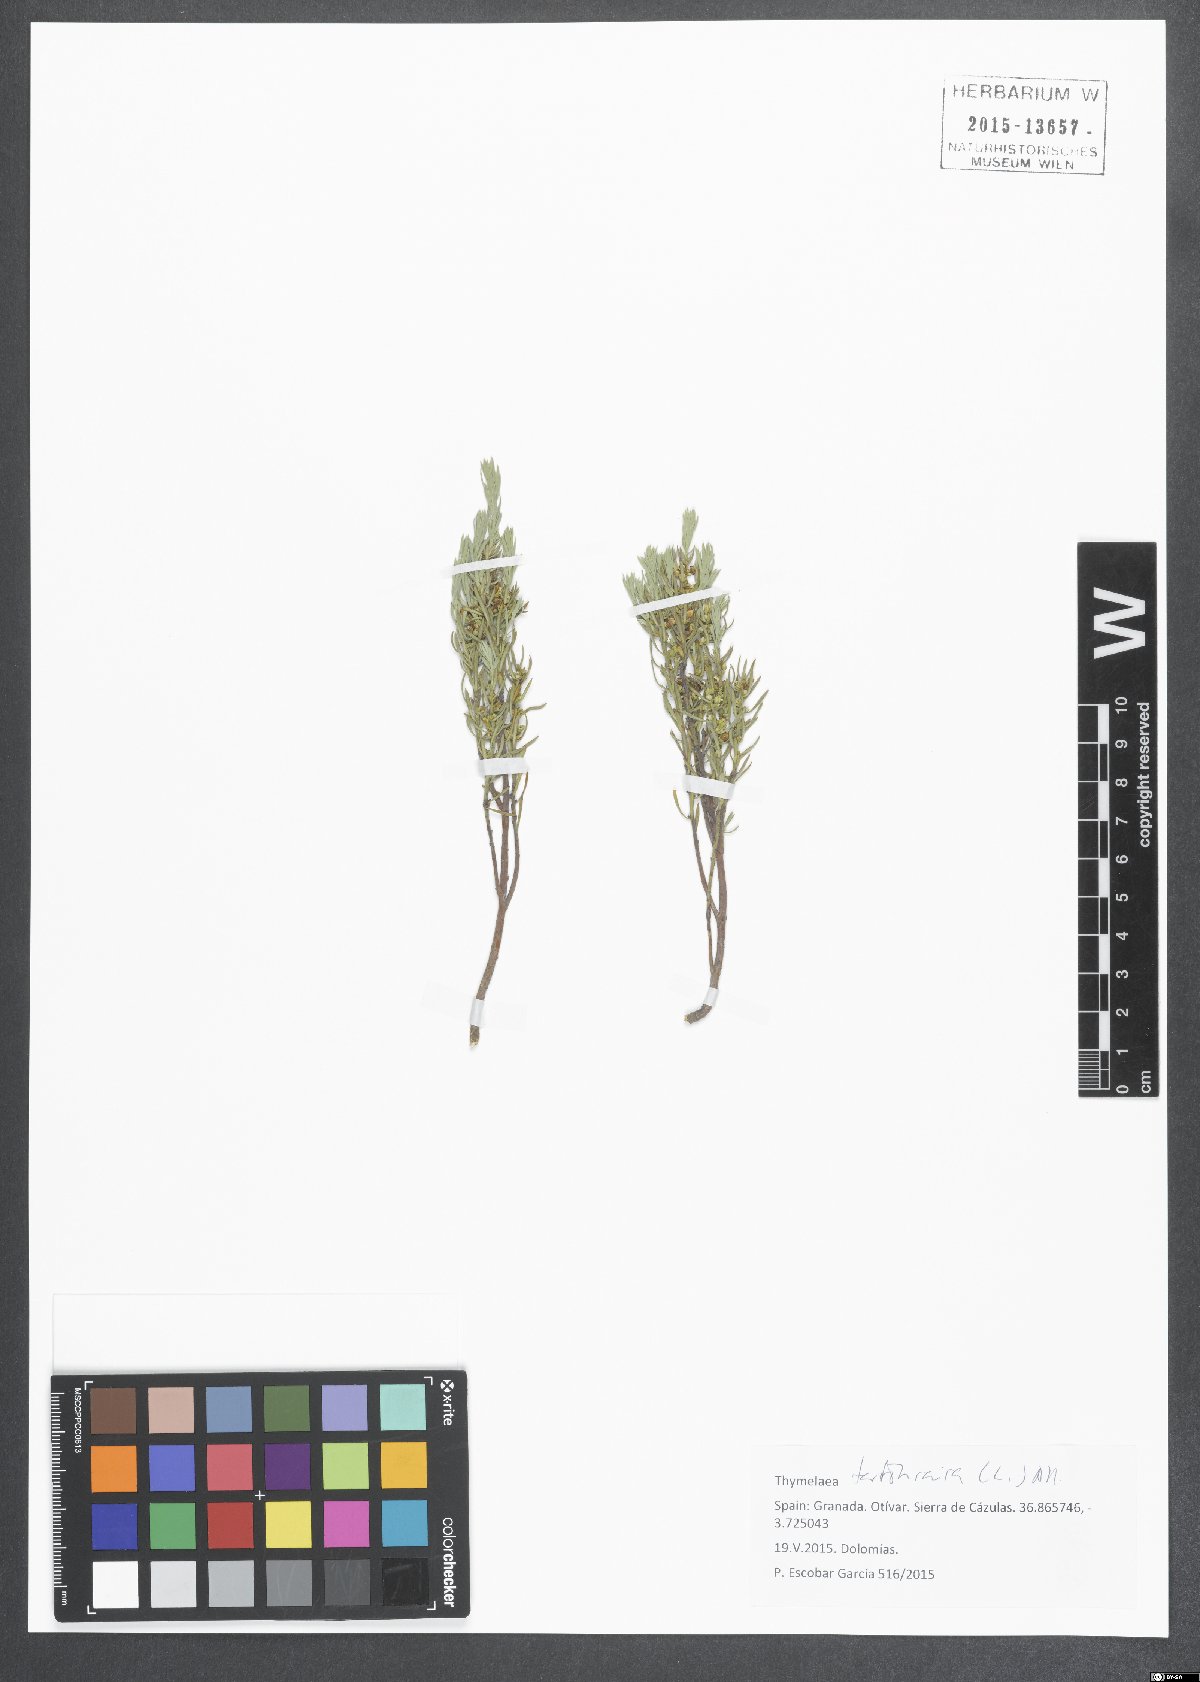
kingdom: Plantae
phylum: Tracheophyta
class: Magnoliopsida
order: Malvales
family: Thymelaeaceae
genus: Thymelaea
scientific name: Thymelaea tartonraira
